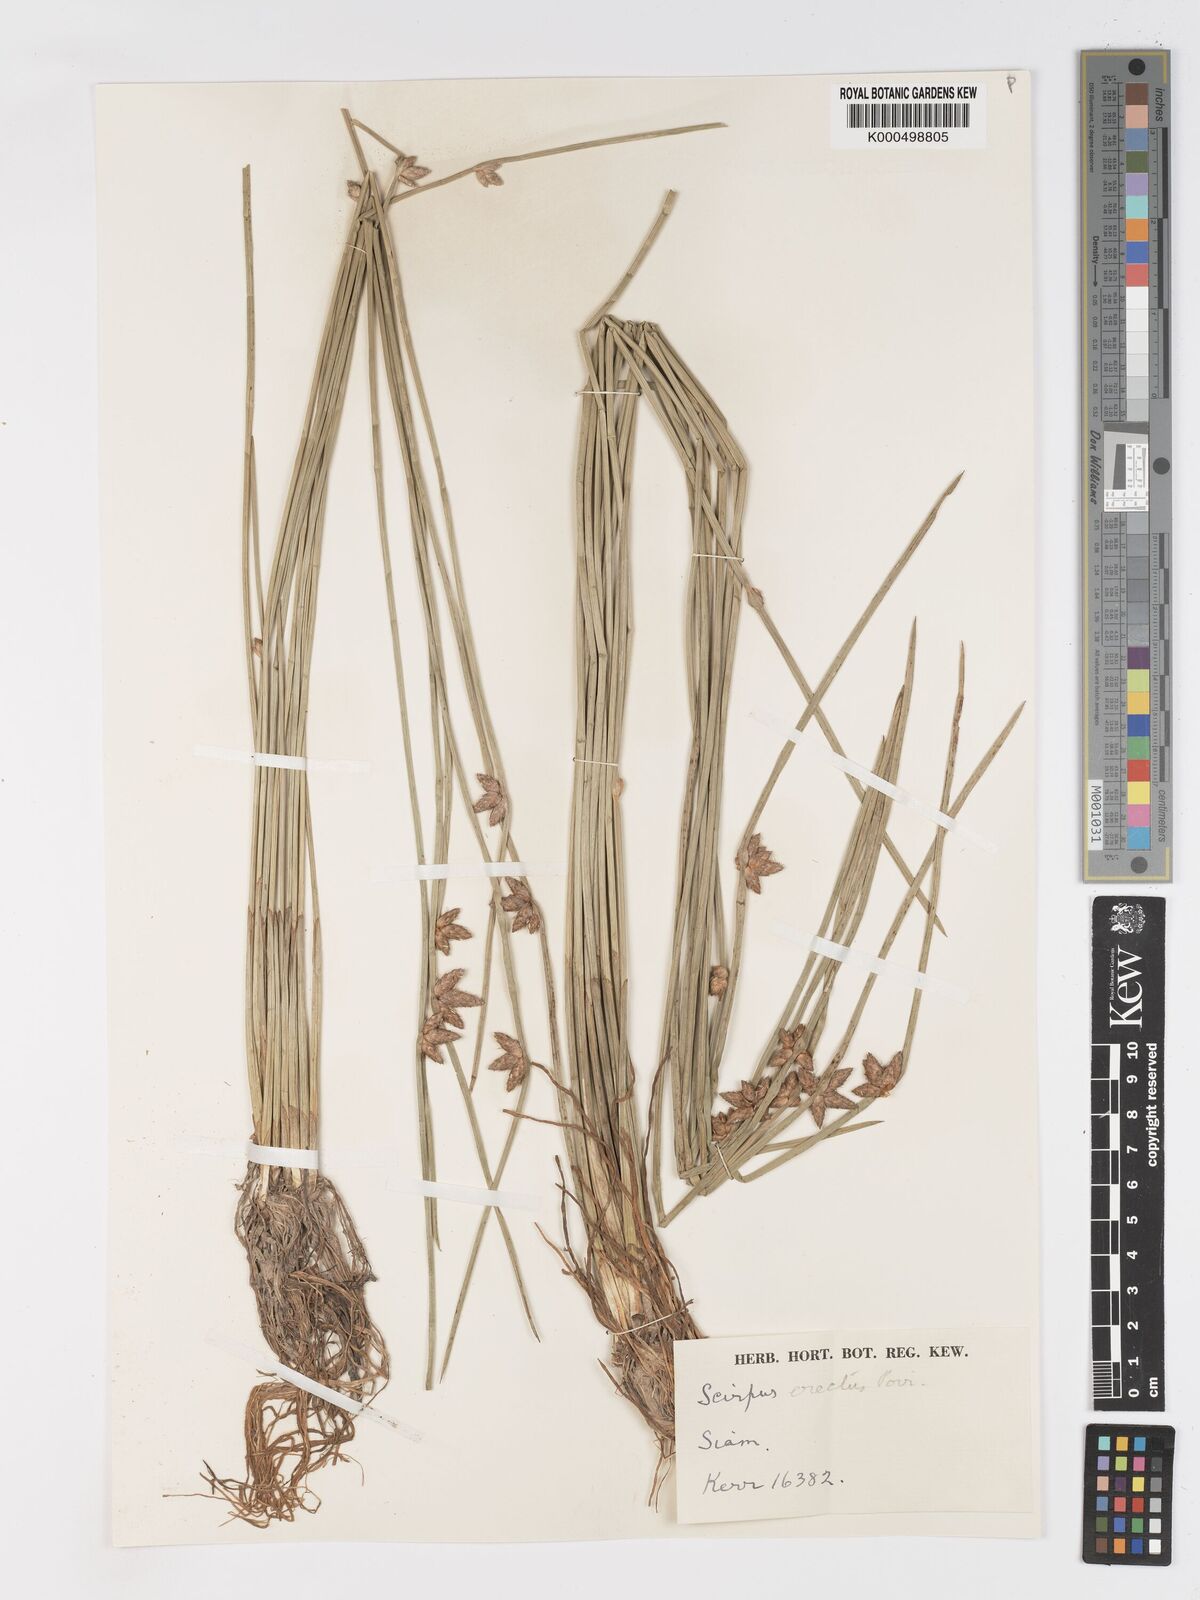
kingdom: Plantae
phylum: Tracheophyta
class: Liliopsida
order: Poales
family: Cyperaceae
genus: Schoenoplectiella
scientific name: Schoenoplectiella juncoides
